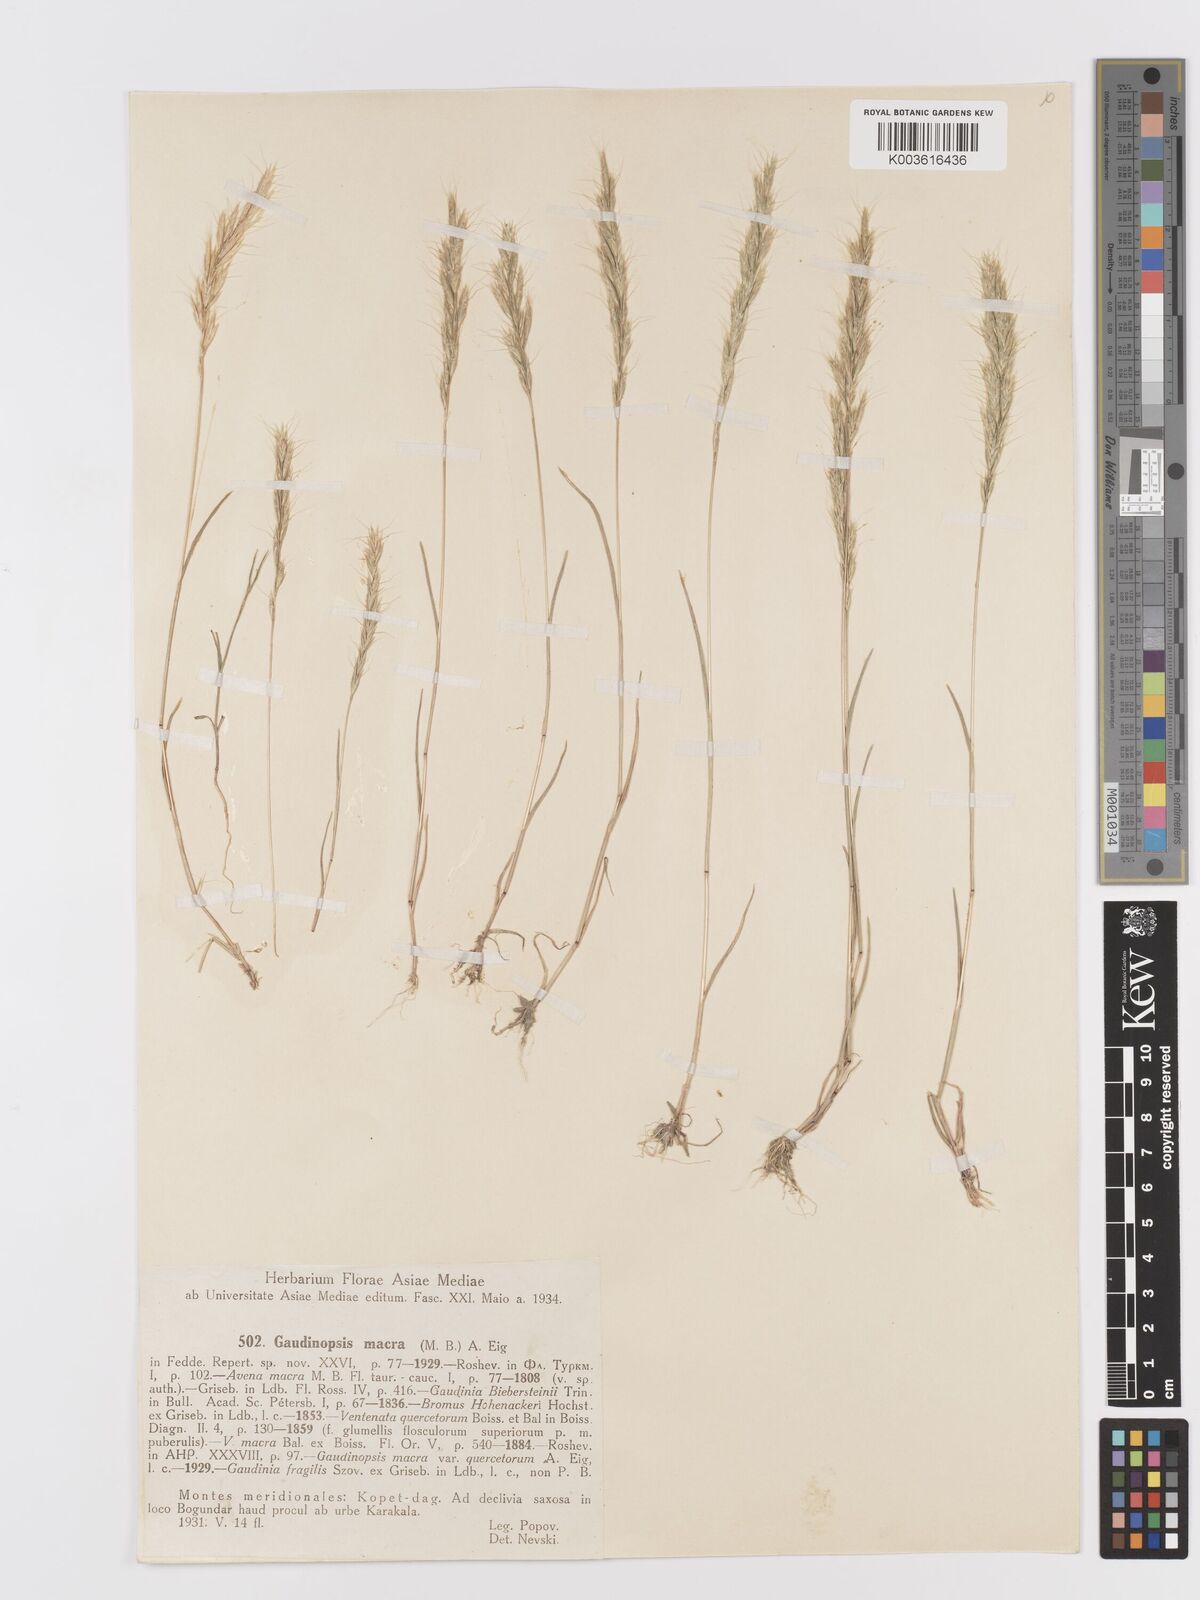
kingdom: Plantae
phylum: Tracheophyta
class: Liliopsida
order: Poales
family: Poaceae
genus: Ventenata
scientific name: Ventenata macra
